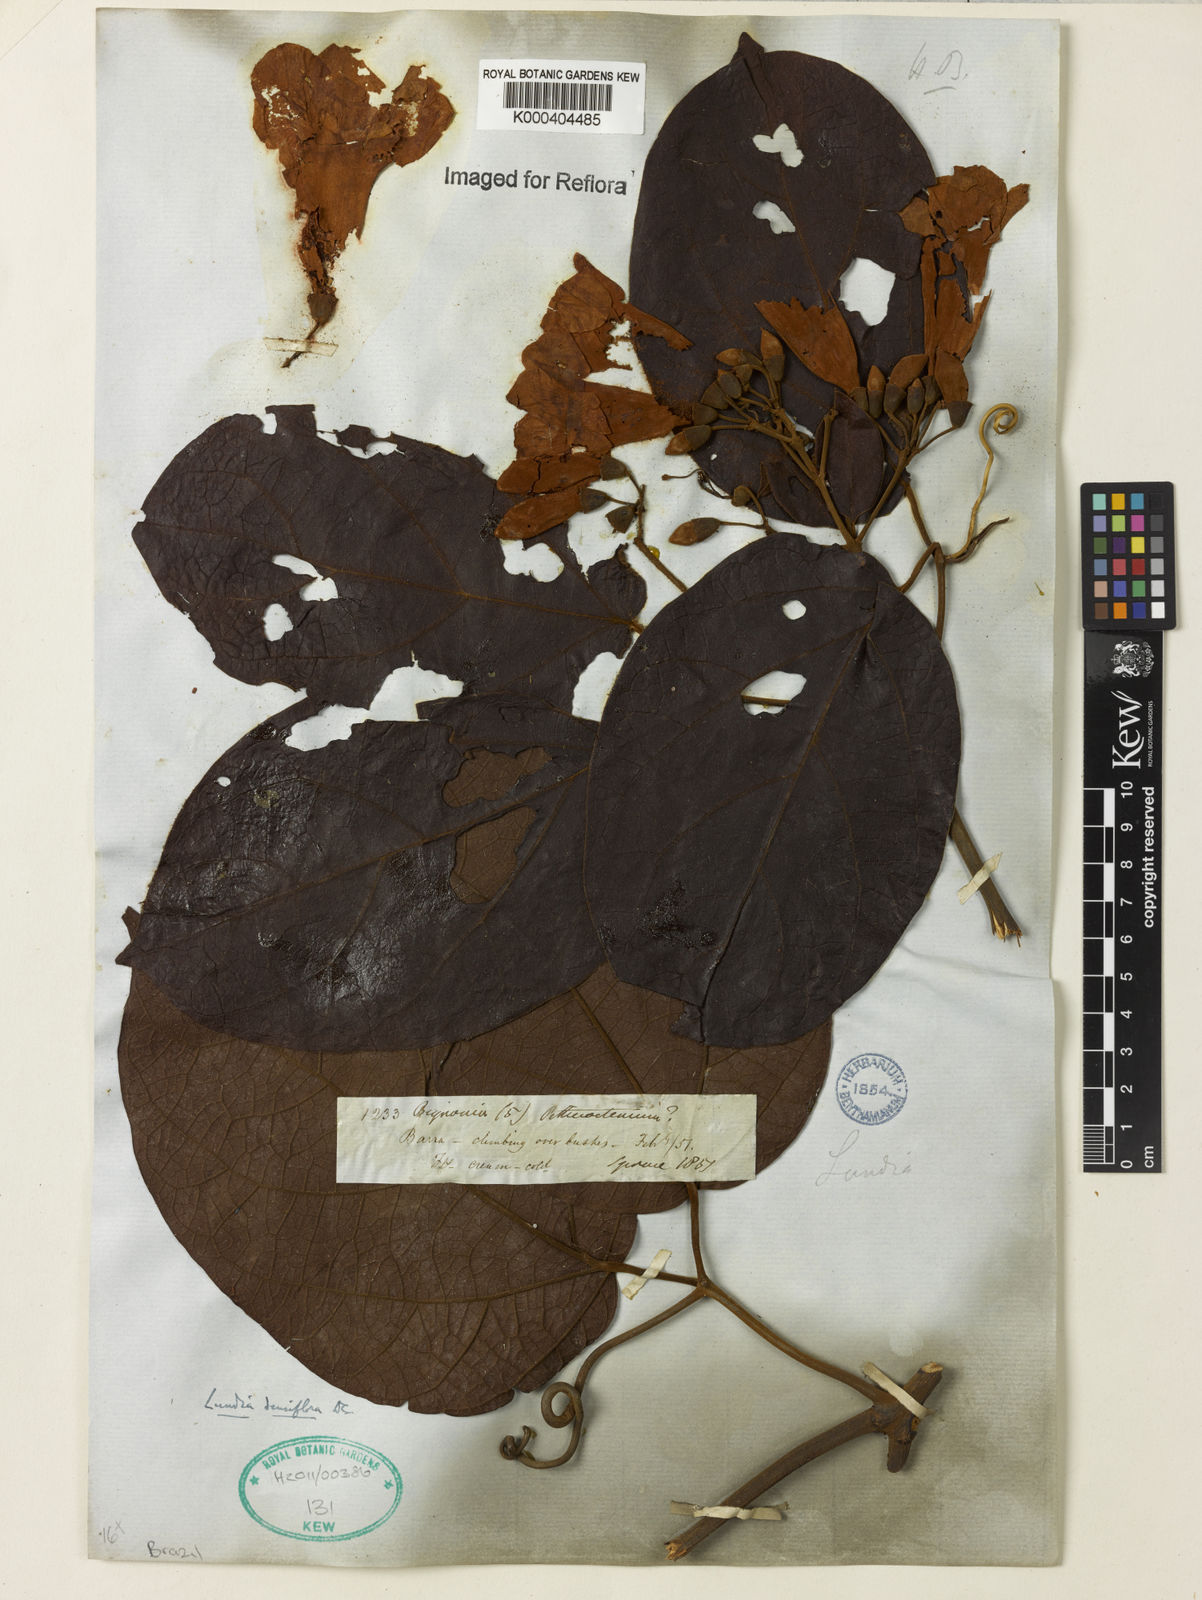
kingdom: Plantae
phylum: Tracheophyta
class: Magnoliopsida
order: Lamiales
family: Bignoniaceae
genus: Lundia
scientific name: Lundia densiflora
